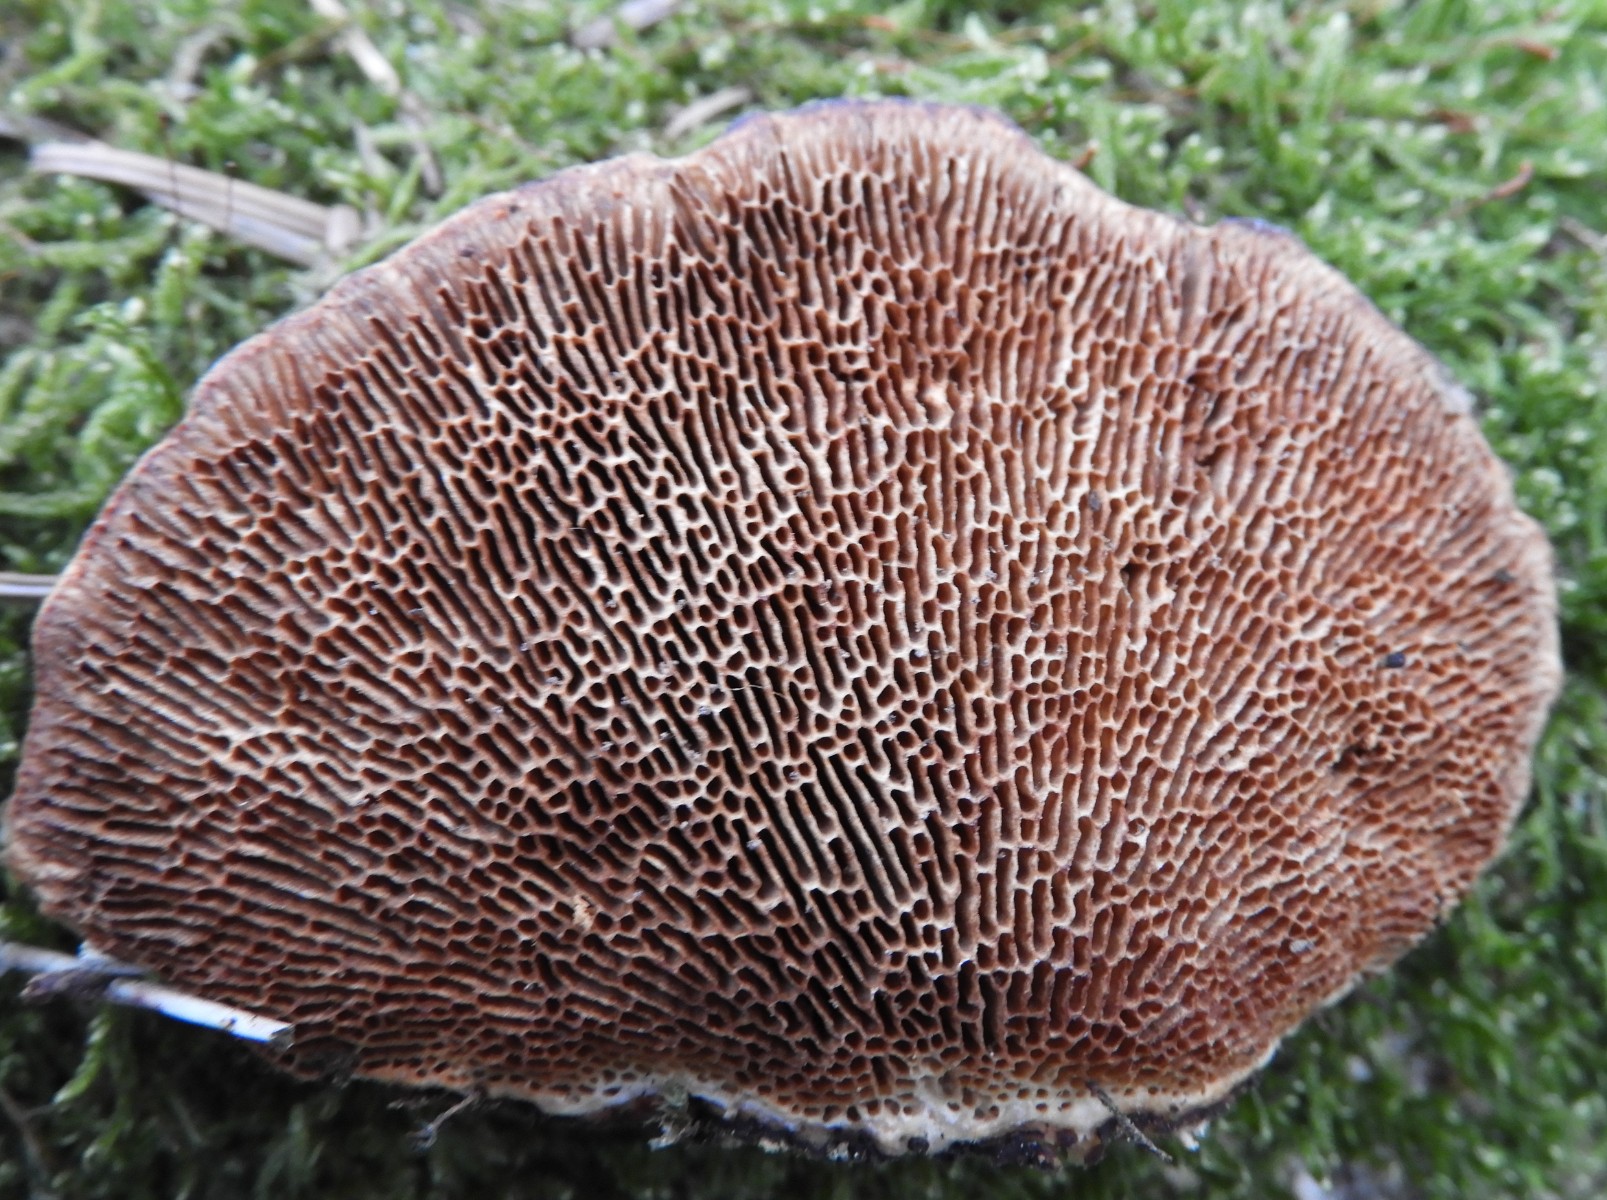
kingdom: Fungi
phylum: Basidiomycota
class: Agaricomycetes
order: Polyporales
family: Polyporaceae
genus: Daedaleopsis
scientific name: Daedaleopsis confragosa
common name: rødmende læderporesvamp
